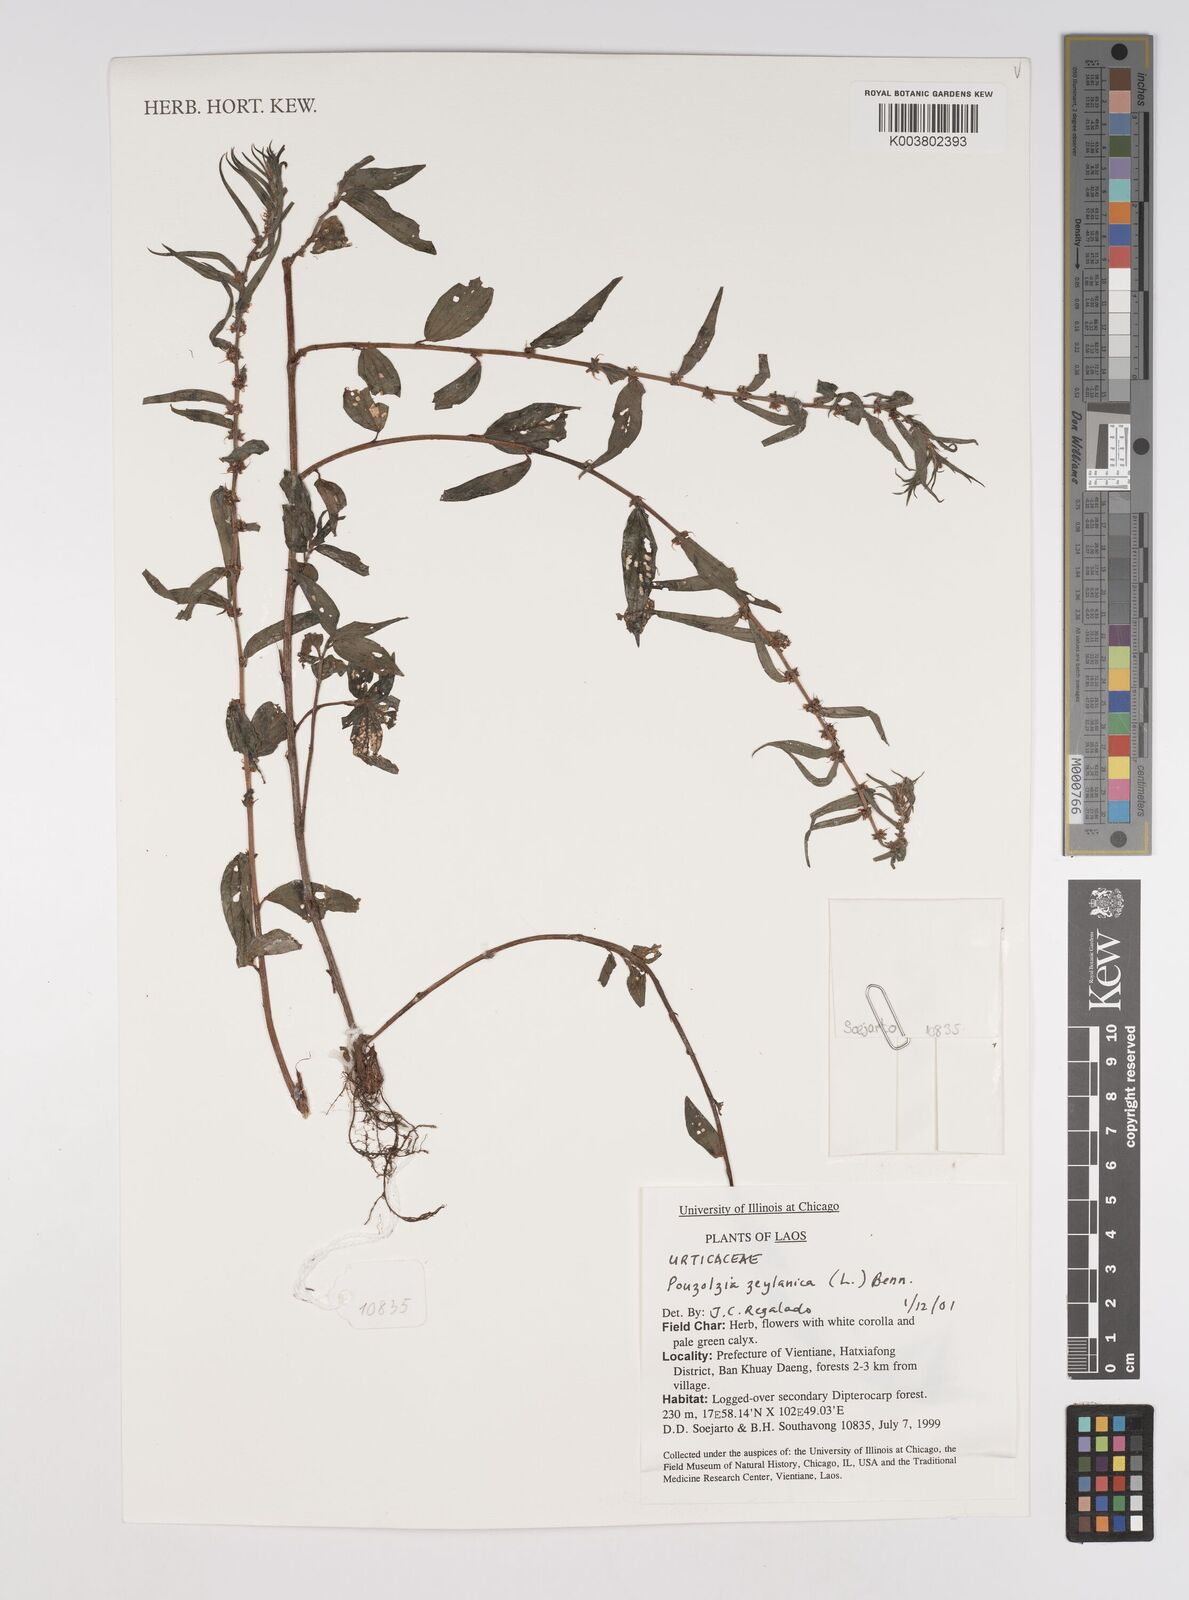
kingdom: Plantae
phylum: Tracheophyta
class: Magnoliopsida
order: Rosales
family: Urticaceae
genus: Pouzolzia
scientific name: Pouzolzia zeylanica
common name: Graceful pouzolzsbush
